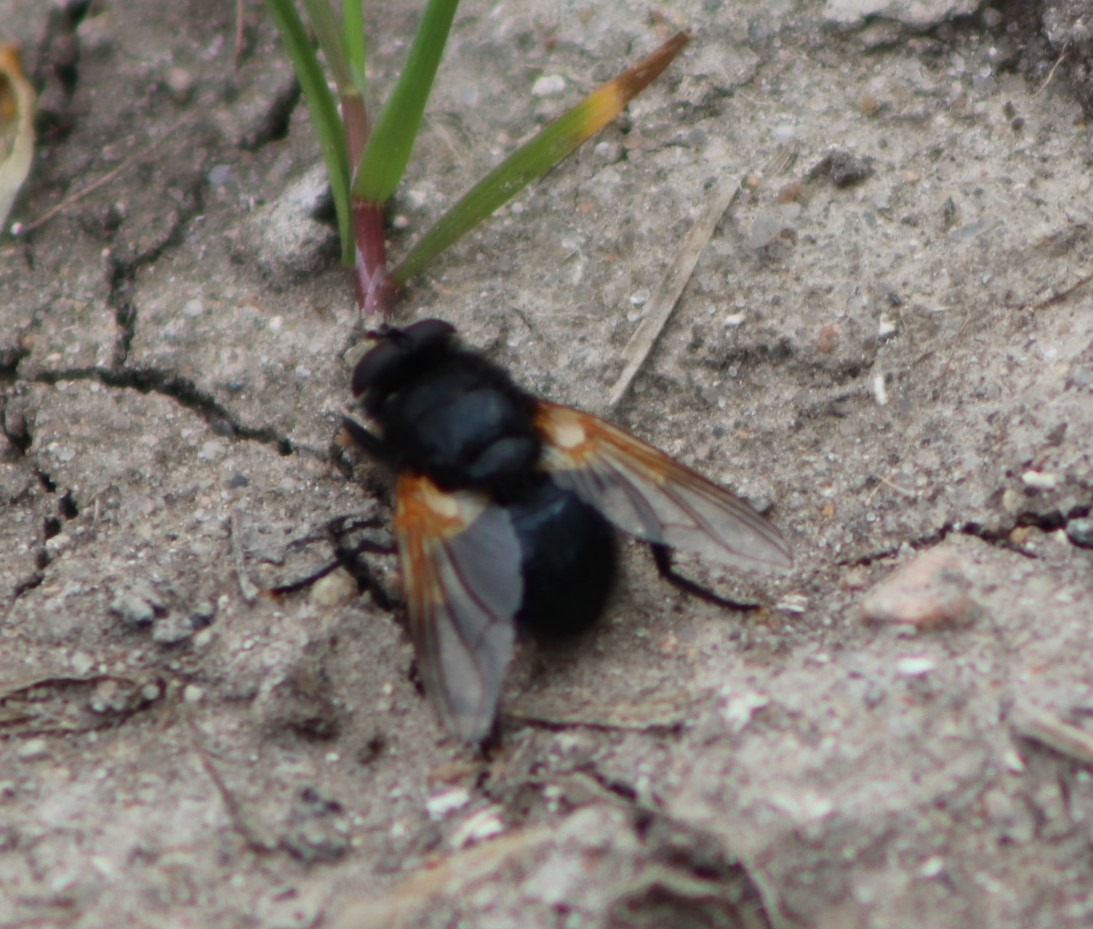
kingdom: Animalia
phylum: Arthropoda
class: Insecta
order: Diptera
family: Muscidae
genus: Mesembrina
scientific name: Mesembrina meridiana
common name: Gulvinget flue
